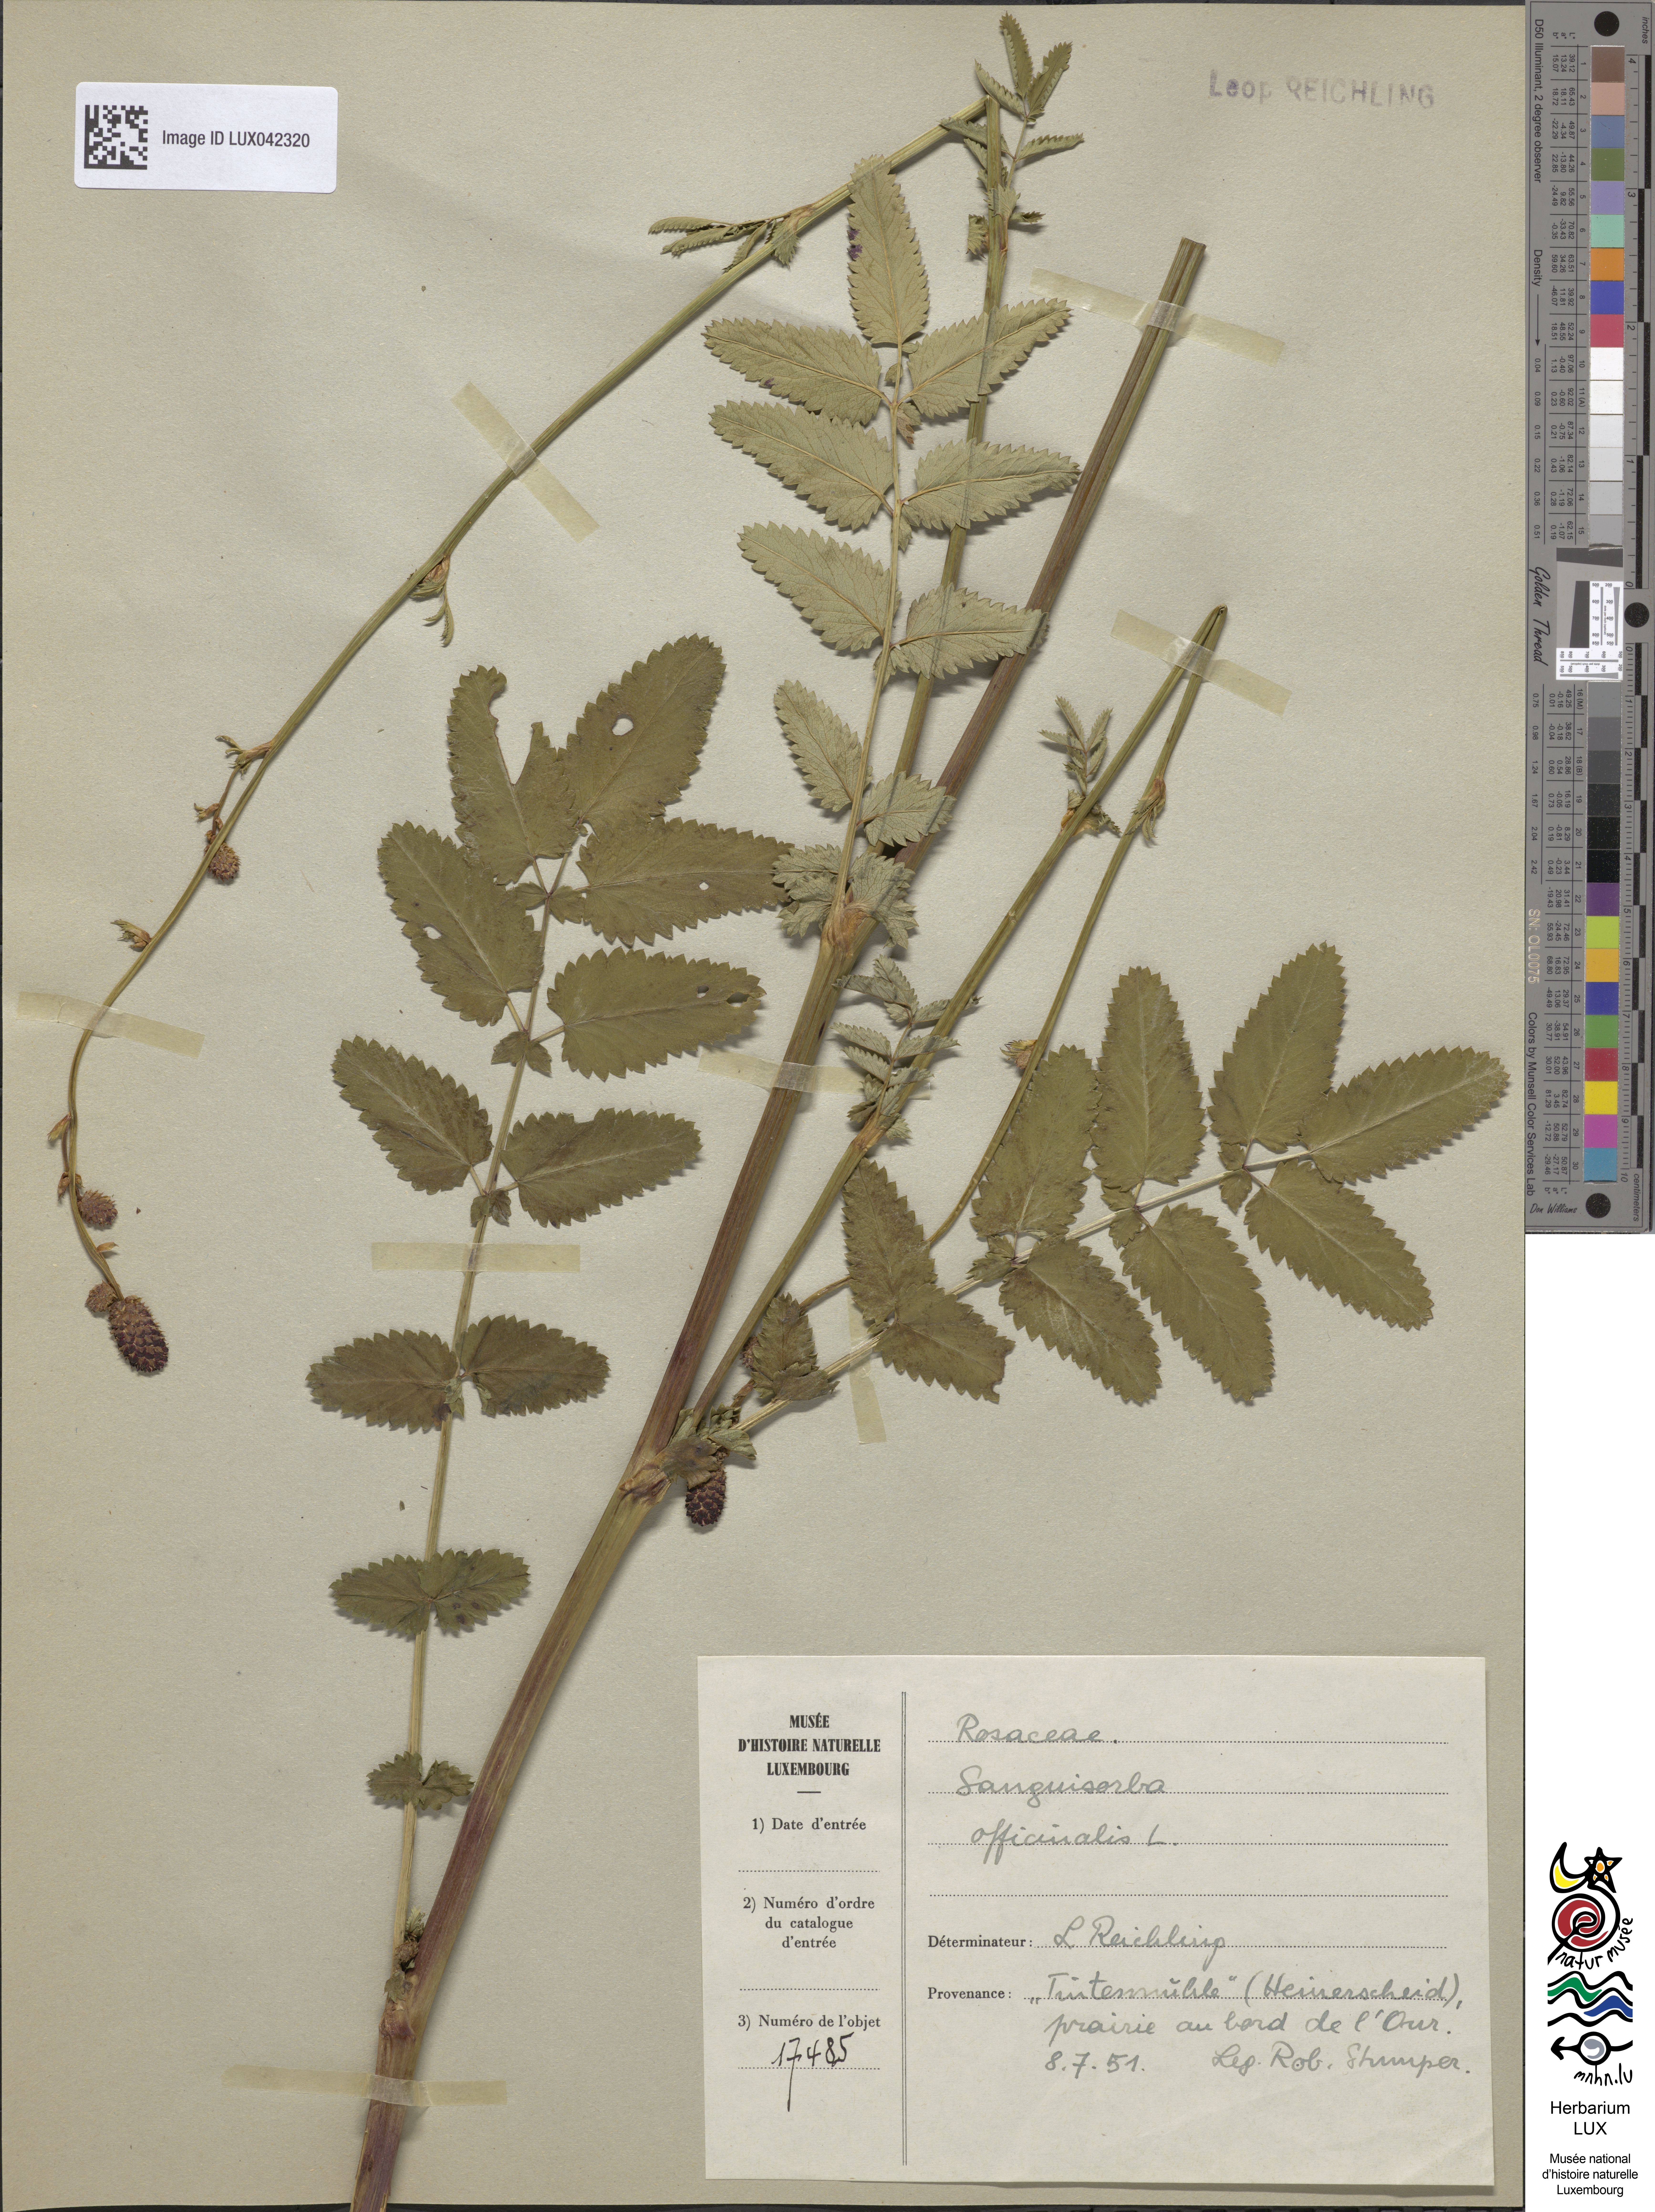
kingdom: Plantae
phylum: Tracheophyta
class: Magnoliopsida
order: Rosales
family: Rosaceae
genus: Sanguisorba
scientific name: Sanguisorba officinalis
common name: Great burnet
